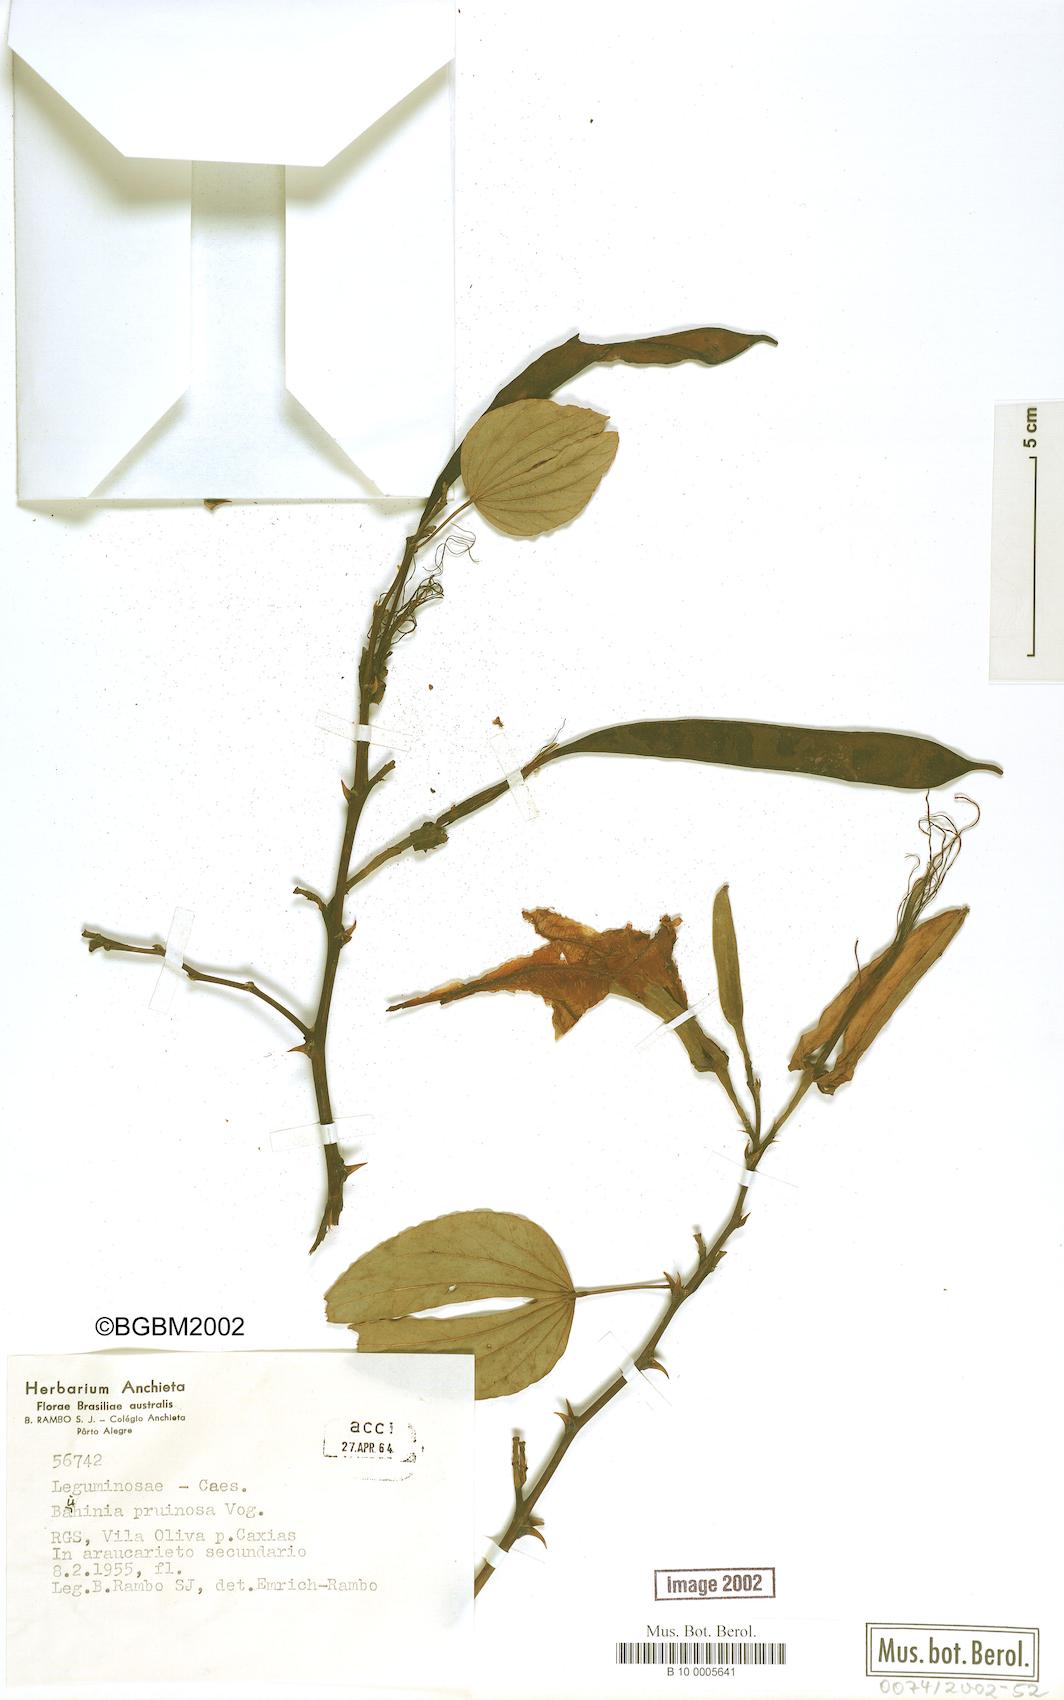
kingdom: Plantae
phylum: Tracheophyta
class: Magnoliopsida
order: Fabales
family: Fabaceae
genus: Bauhinia
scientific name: Bauhinia forficata
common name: Orchid tree
